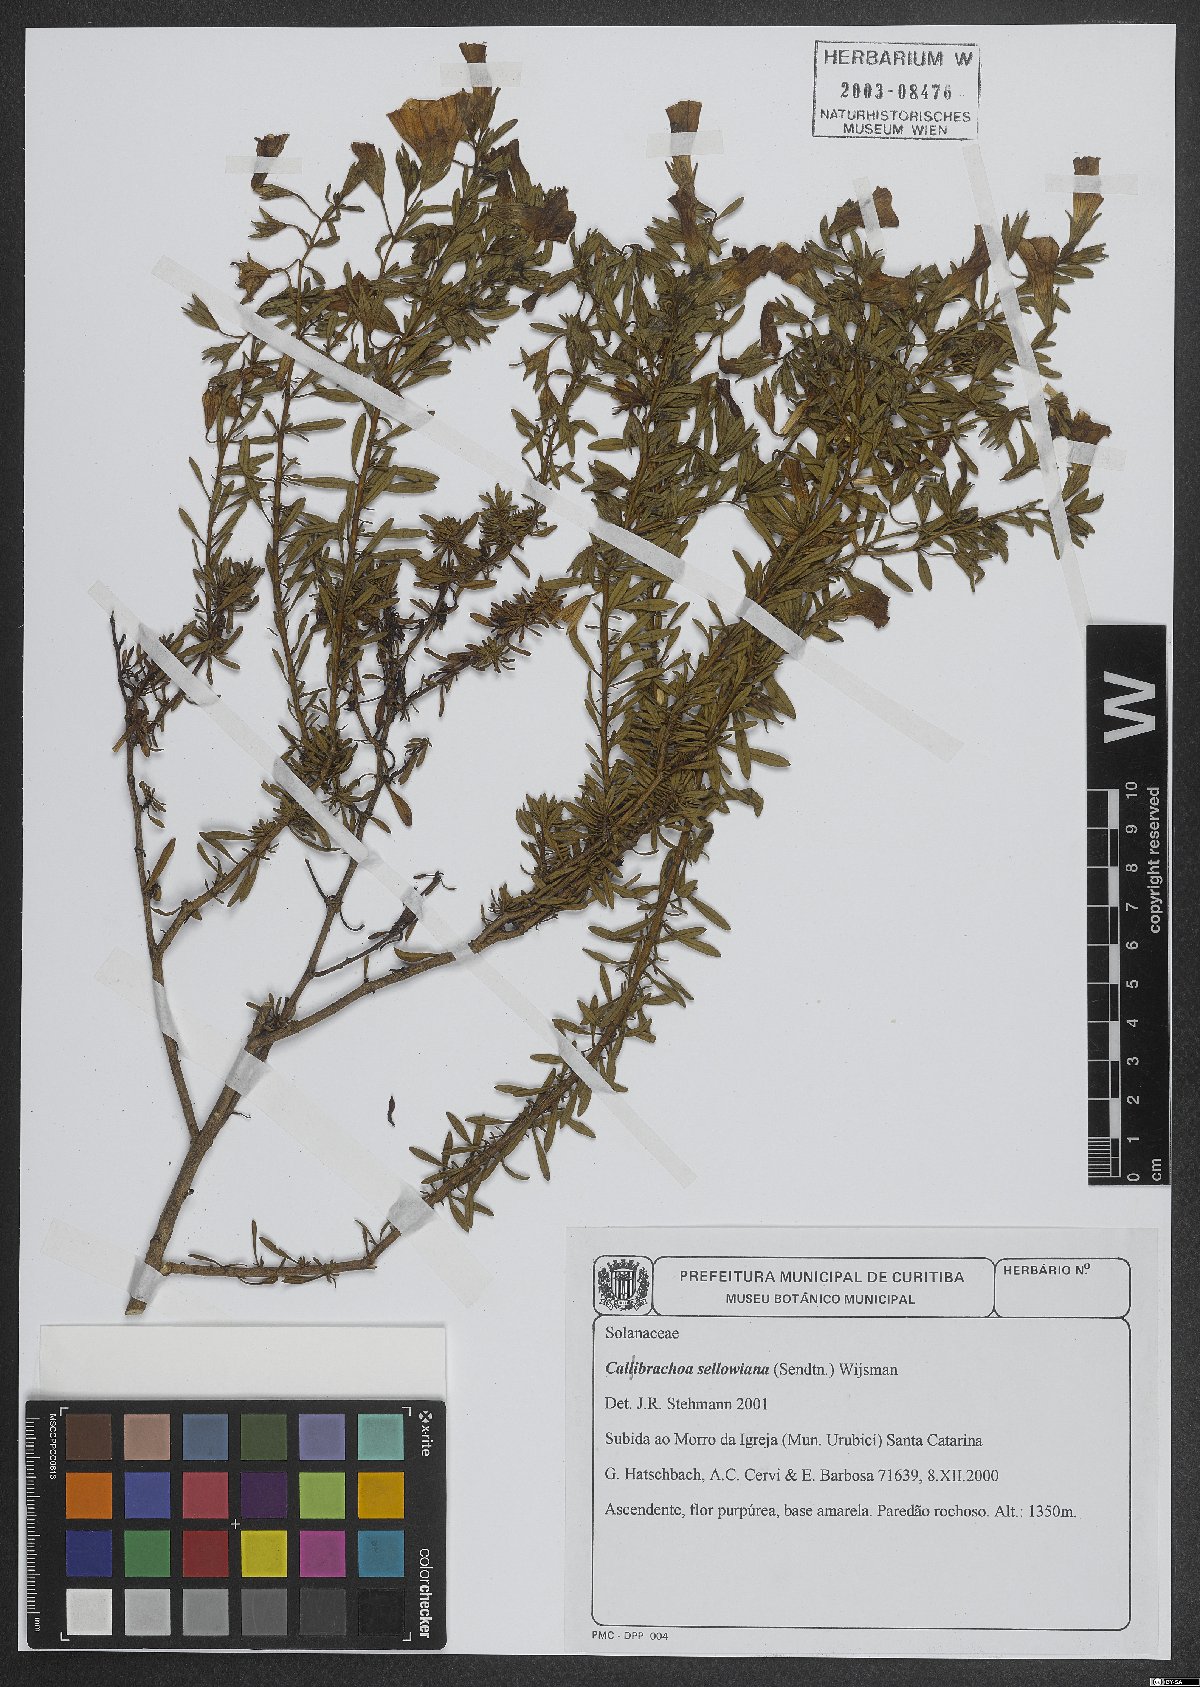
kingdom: Plantae
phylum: Tracheophyta
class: Magnoliopsida
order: Solanales
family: Solanaceae
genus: Calibrachoa
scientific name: Calibrachoa sellowiana
